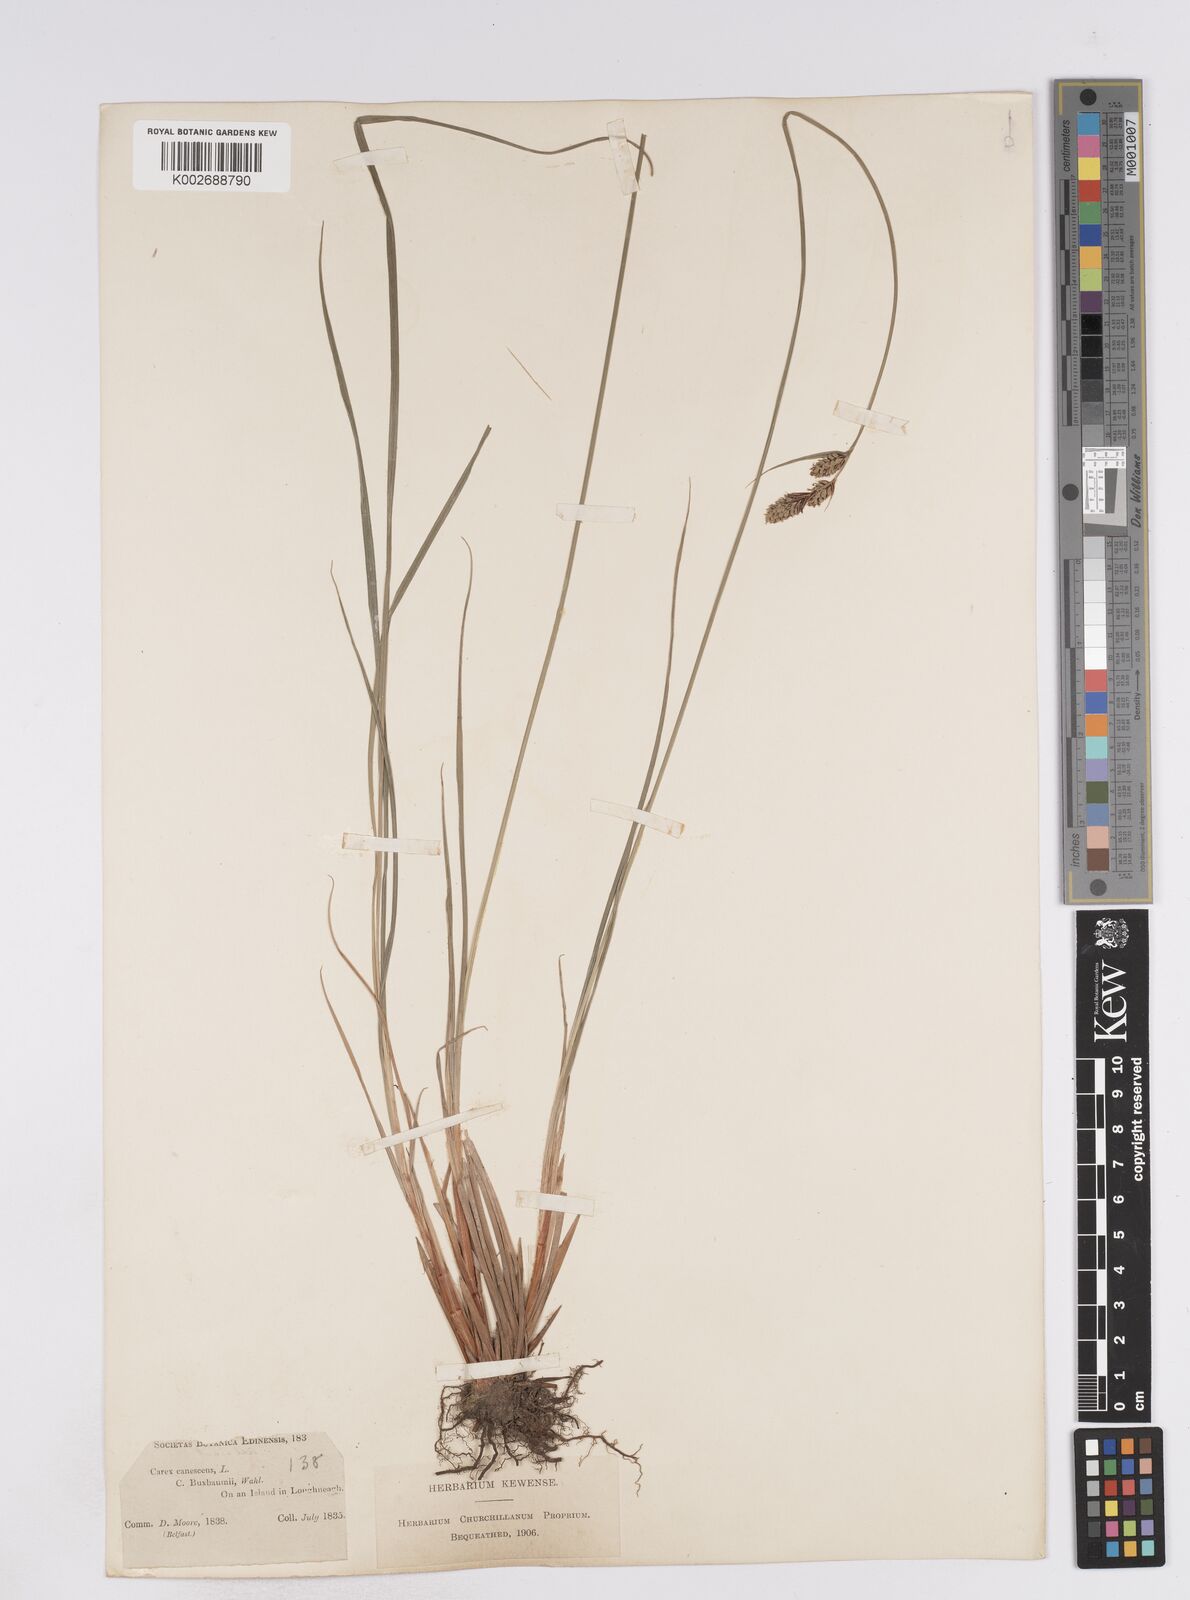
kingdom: Plantae
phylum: Tracheophyta
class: Liliopsida
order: Poales
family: Cyperaceae
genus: Carex
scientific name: Carex buxbaumii
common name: Club sedge
